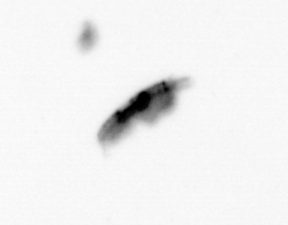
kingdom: Animalia
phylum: Arthropoda
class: Copepoda
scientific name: Copepoda
